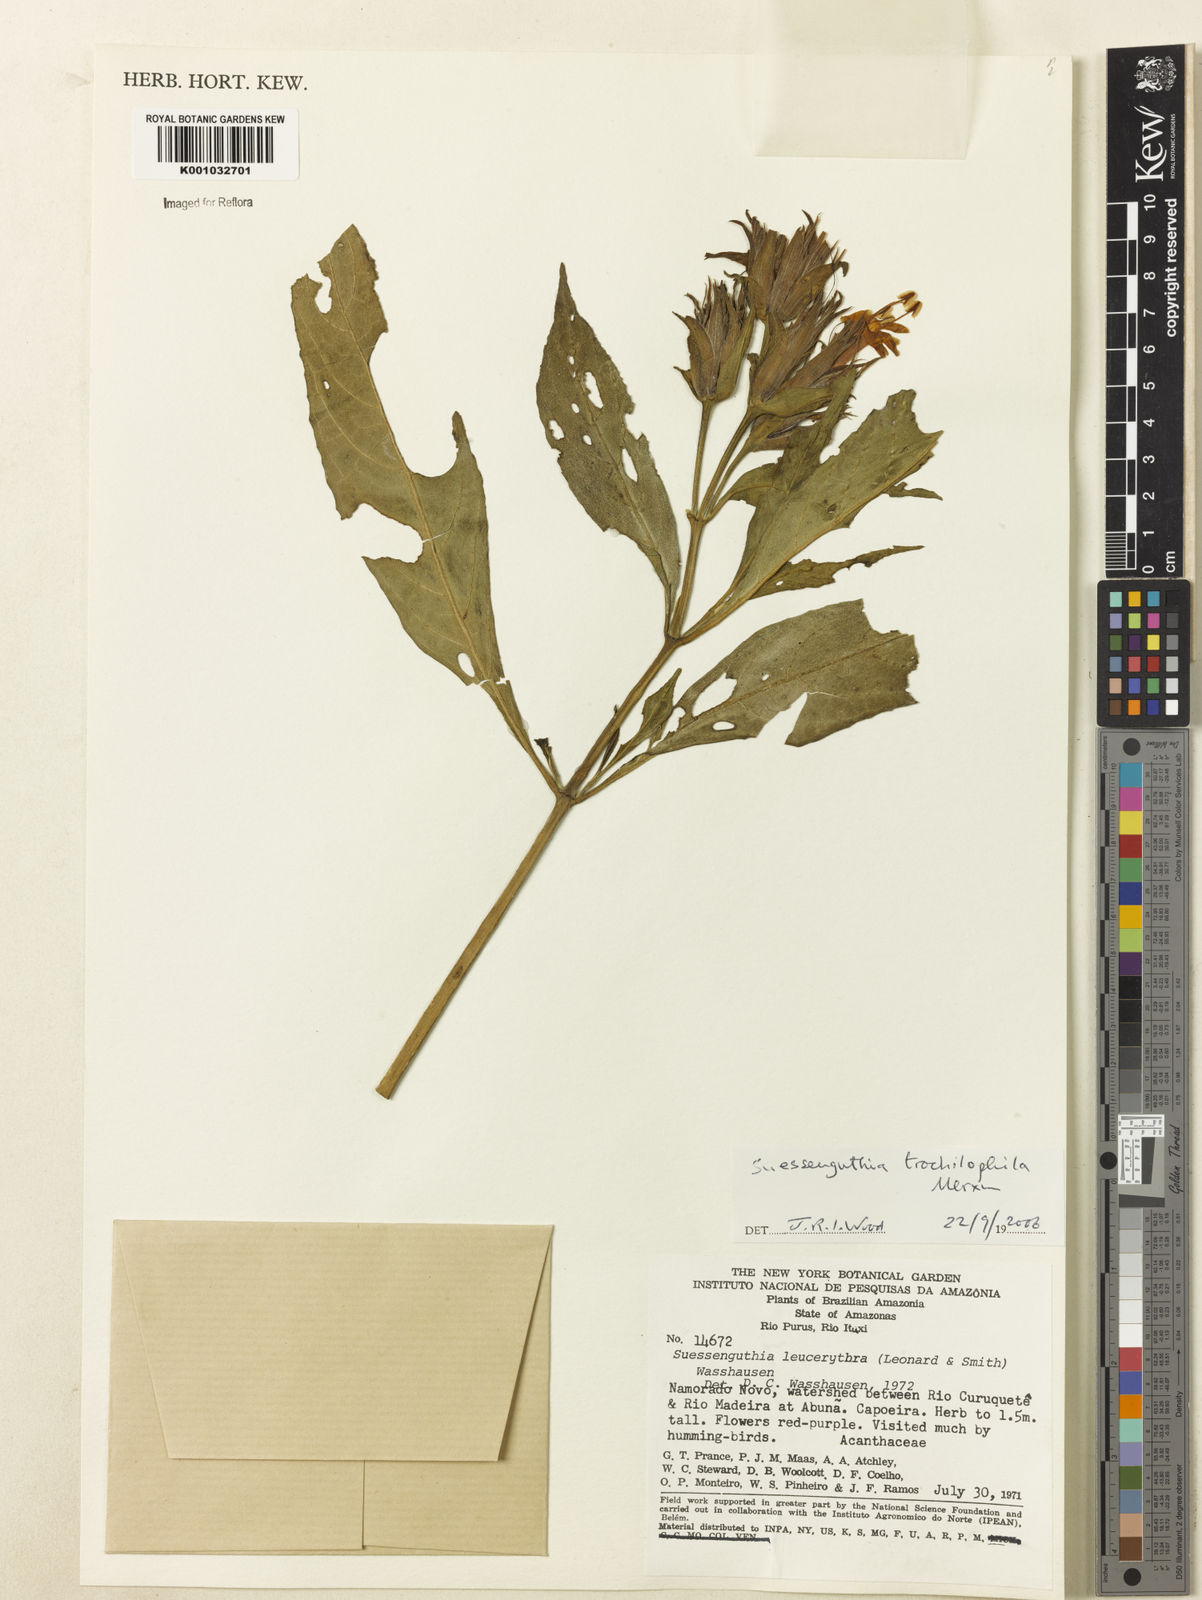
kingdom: Plantae
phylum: Tracheophyta
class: Magnoliopsida
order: Lamiales
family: Acanthaceae
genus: Suessenguthia
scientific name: Suessenguthia trochilophila
